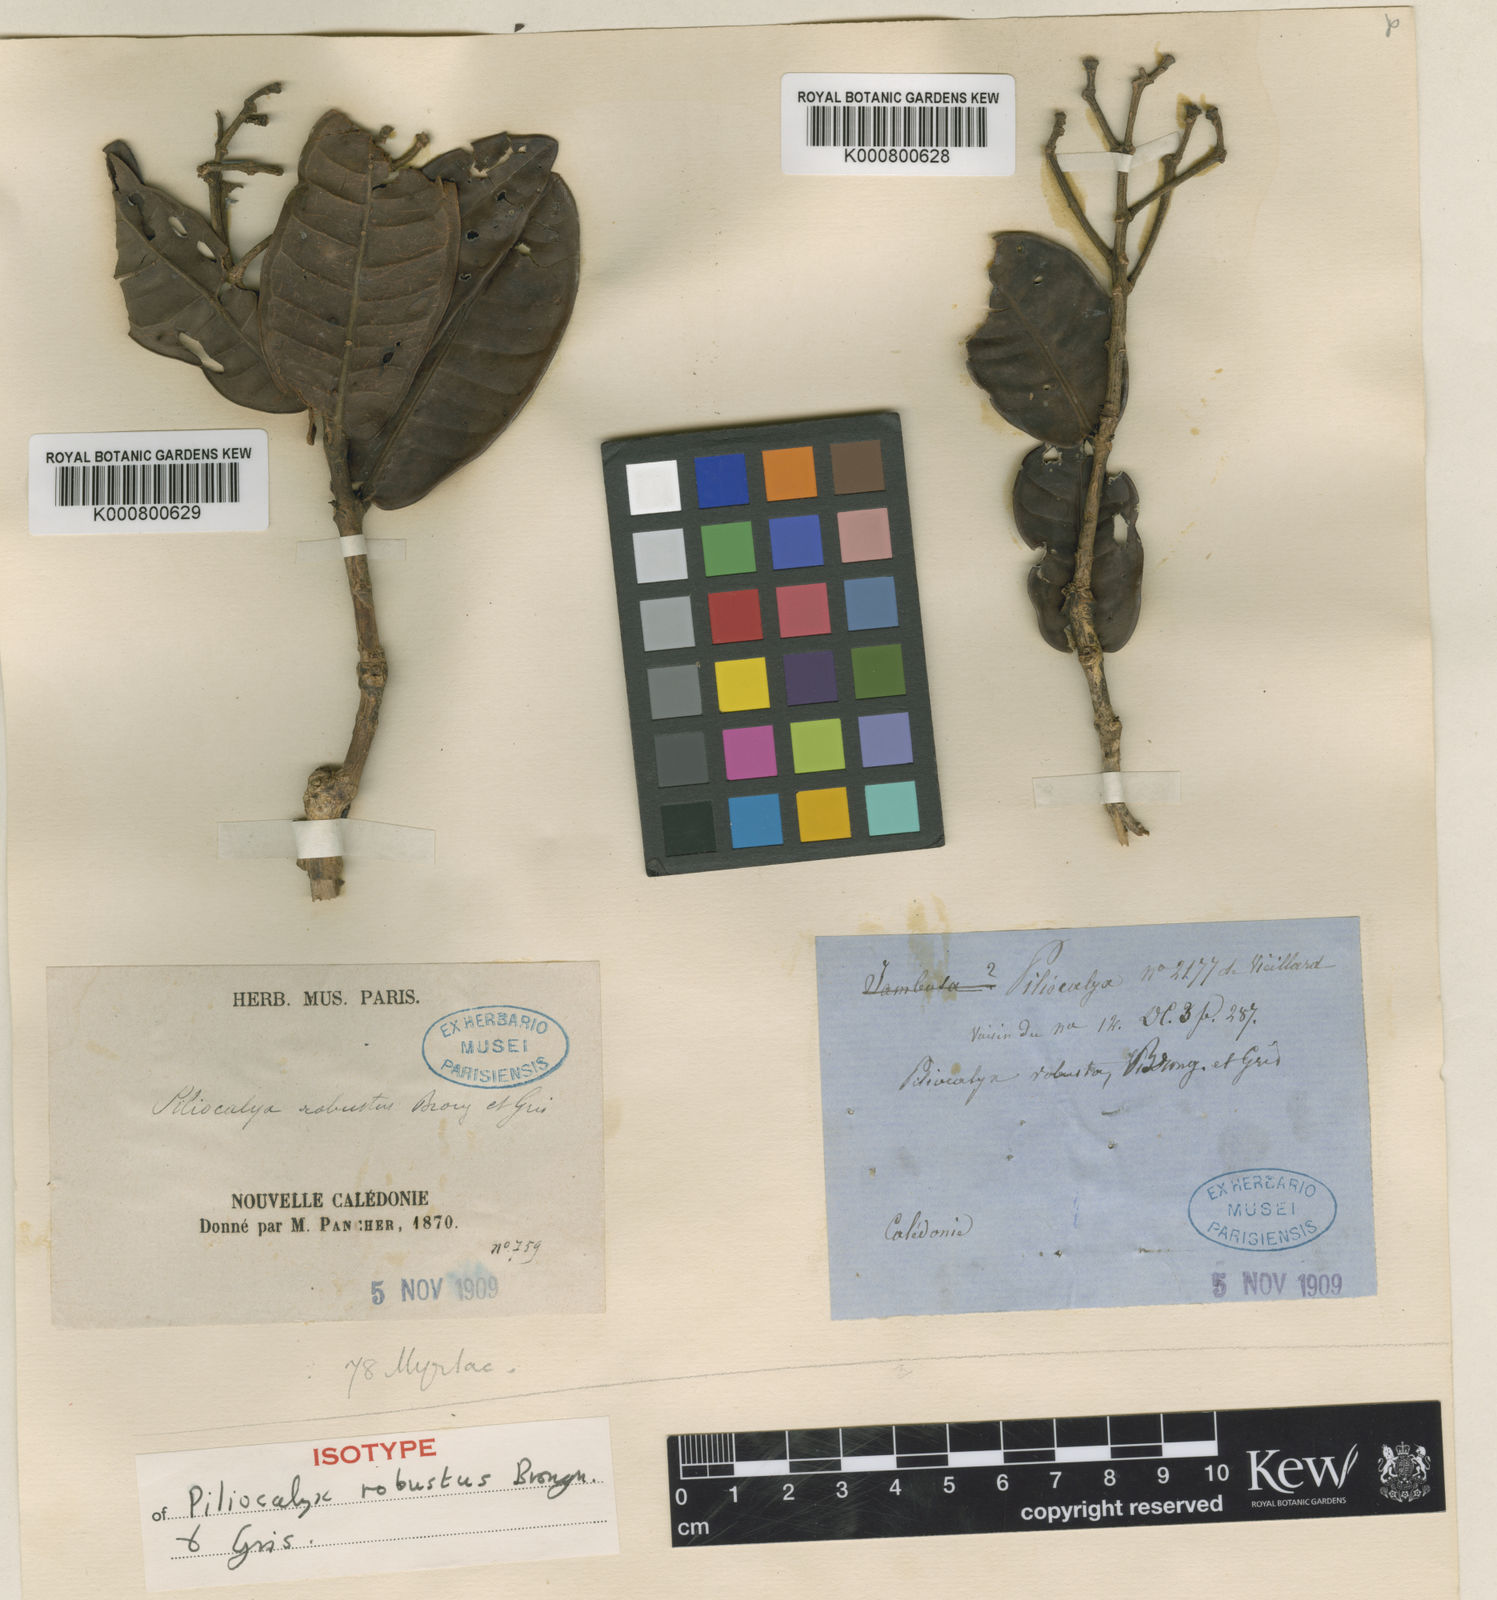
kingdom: Plantae
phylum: Tracheophyta
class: Magnoliopsida
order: Myrtales
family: Myrtaceae
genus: Syzygium
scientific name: Syzygium viriosum
